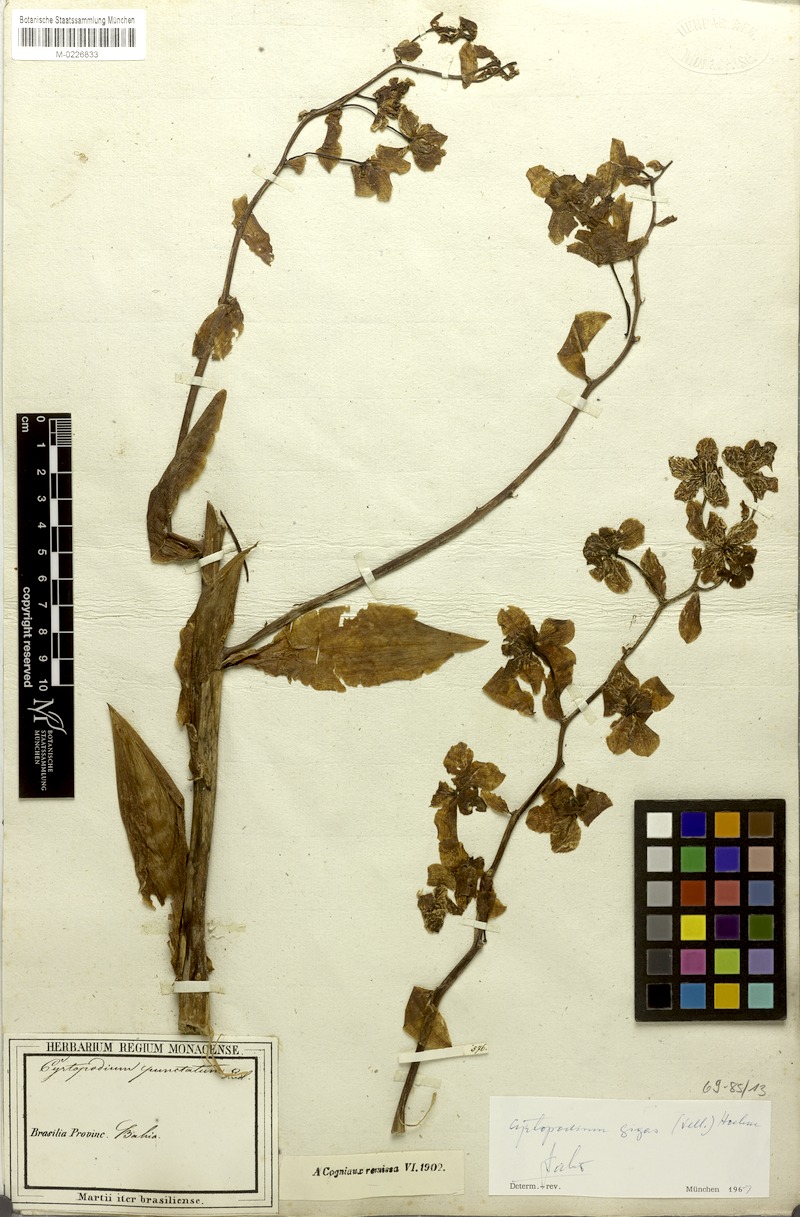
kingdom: Plantae
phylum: Tracheophyta
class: Liliopsida
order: Asparagales
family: Orchidaceae
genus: Cyrtopodium
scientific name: Cyrtopodium gigas
